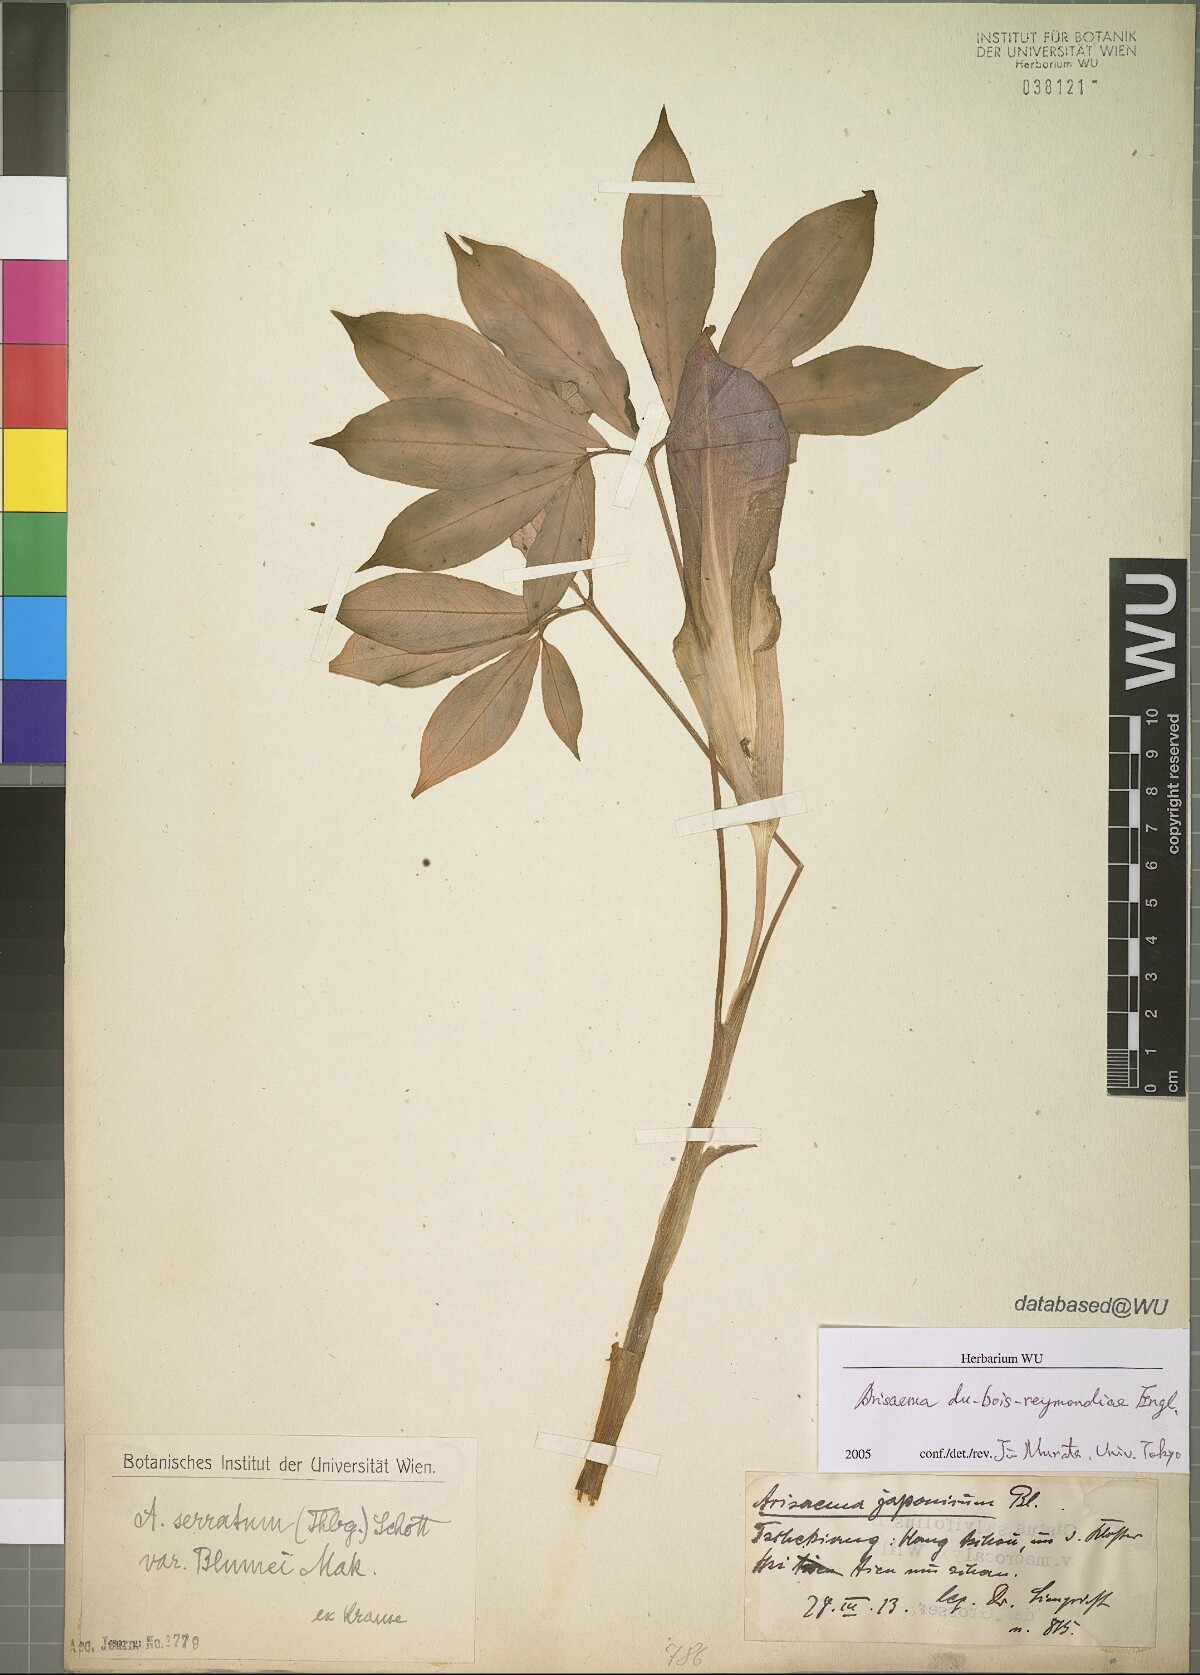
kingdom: Plantae
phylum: Tracheophyta
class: Liliopsida
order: Alismatales
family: Araceae
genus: Arisaema
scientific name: Arisaema silvestrii
